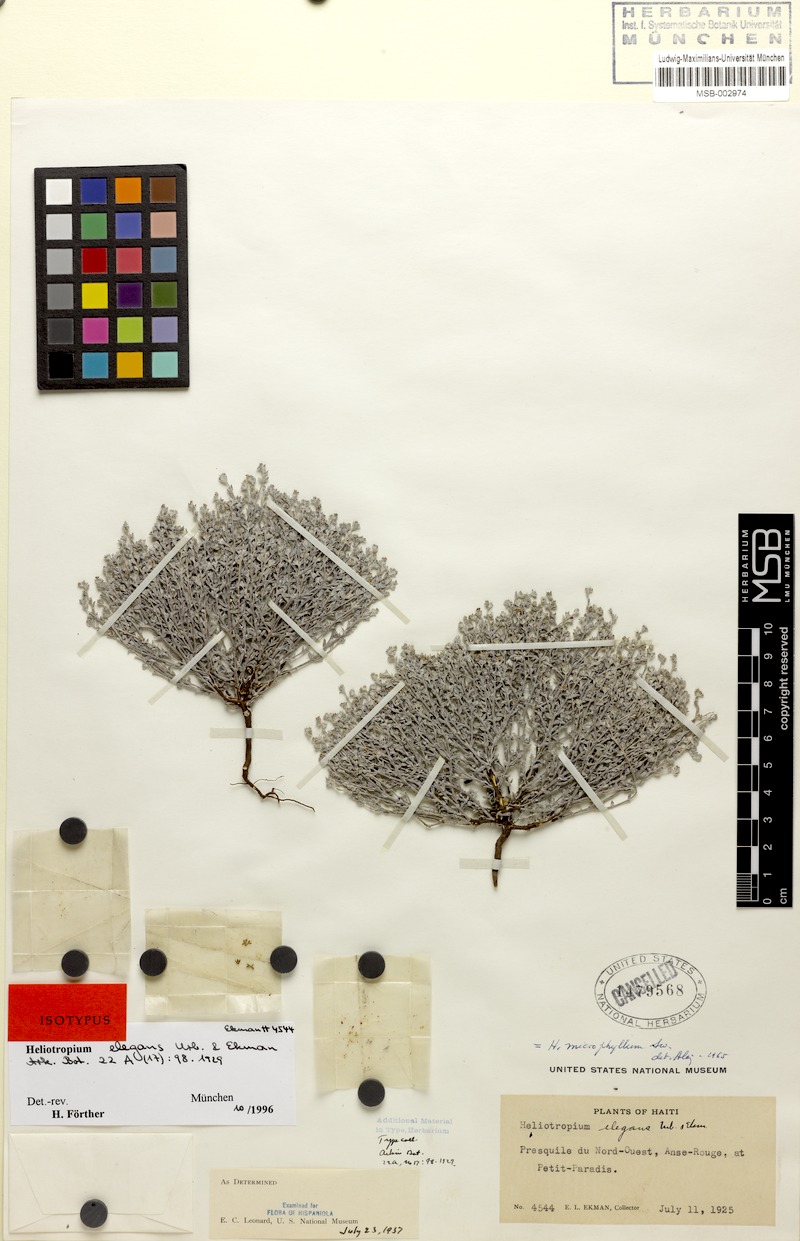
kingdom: Plantae
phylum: Tracheophyta
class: Magnoliopsida
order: Boraginales
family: Heliotropiaceae
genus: Euploca
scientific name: Euploca microphylla
